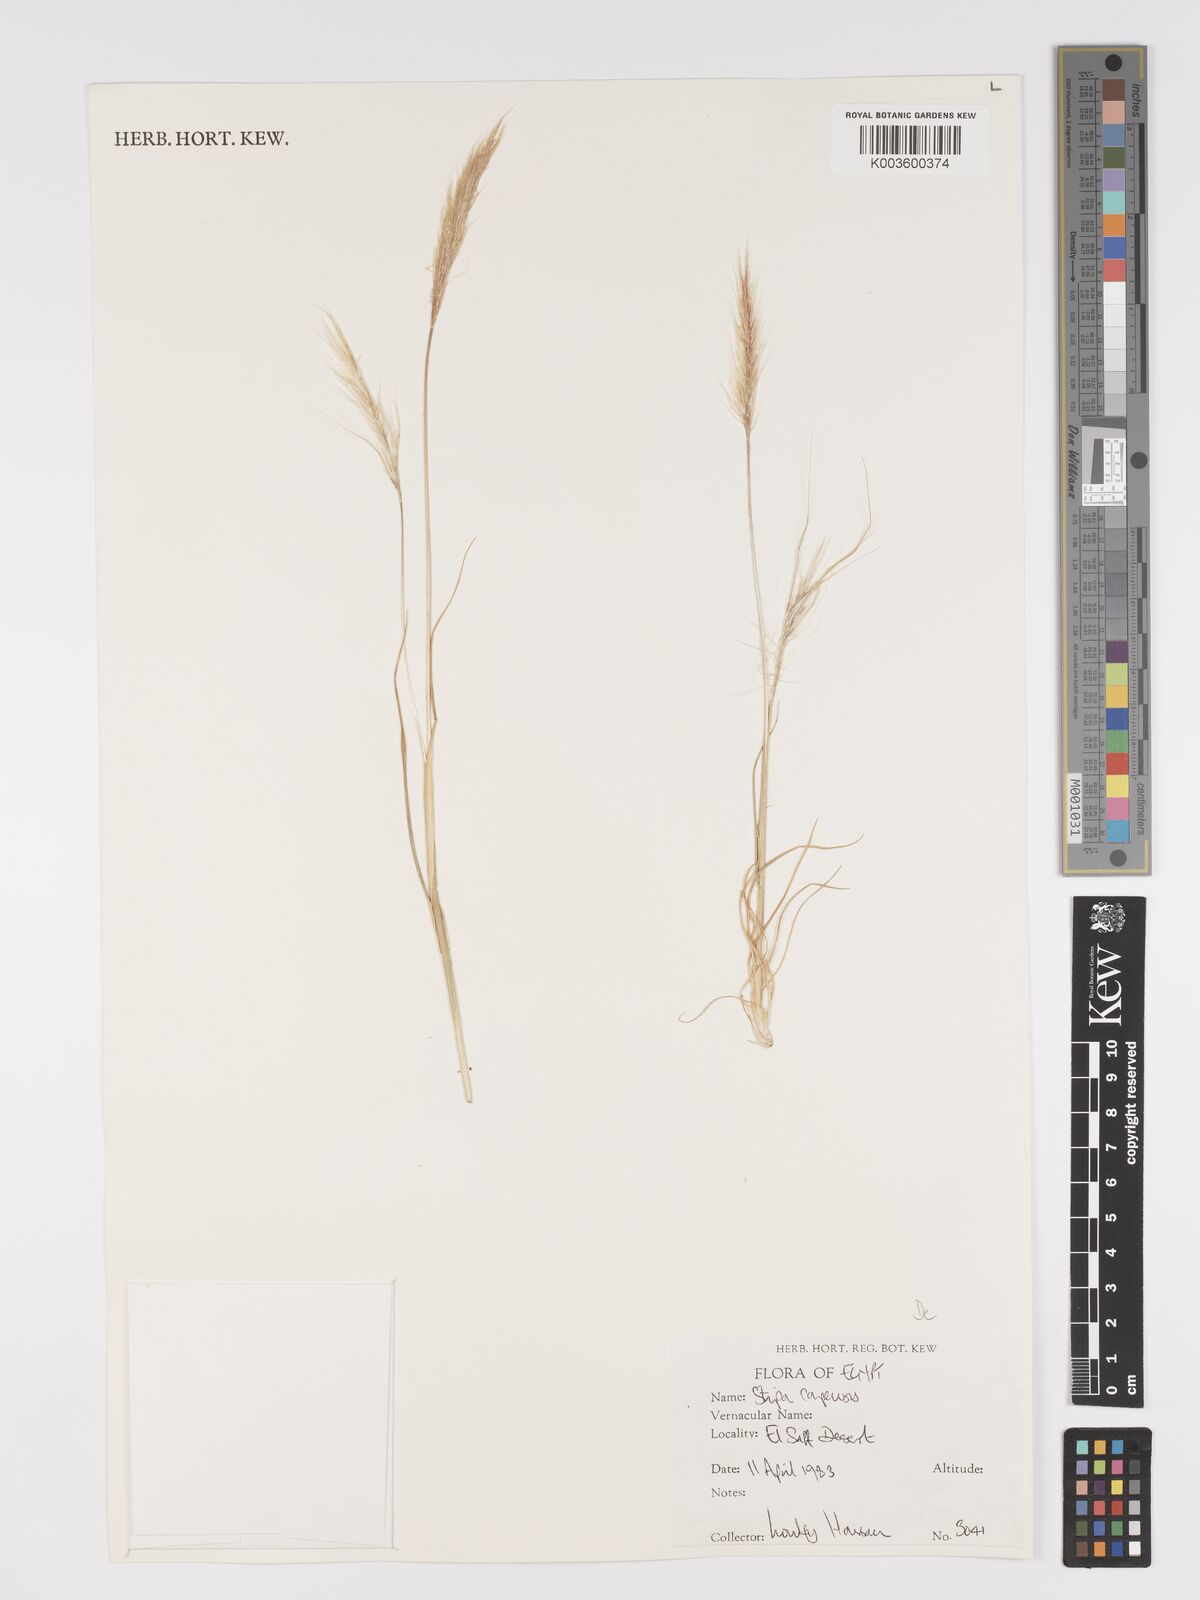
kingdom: Plantae
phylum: Tracheophyta
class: Liliopsida
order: Poales
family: Poaceae
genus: Stipellula
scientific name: Stipellula capensis
